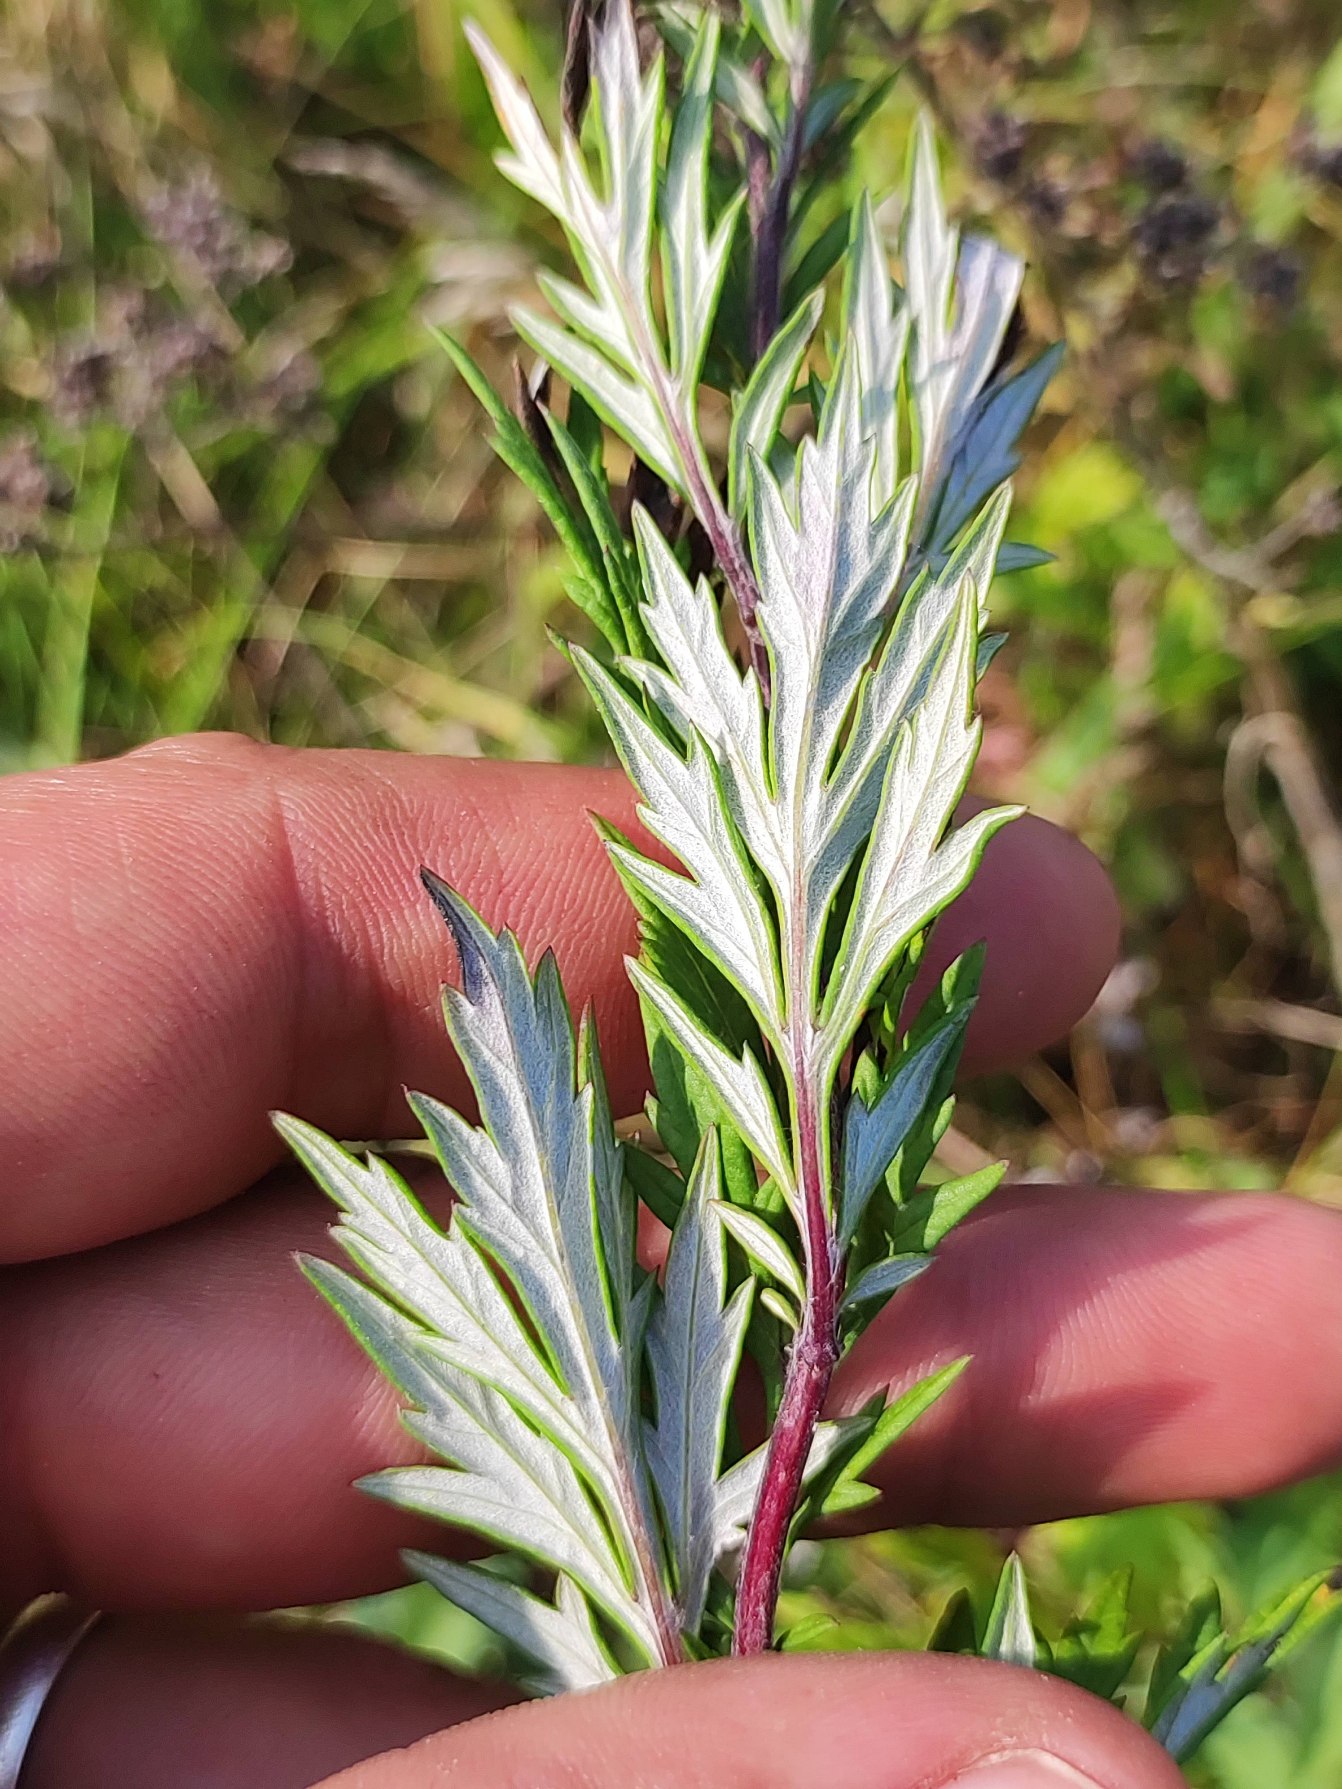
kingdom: Plantae
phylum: Tracheophyta
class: Magnoliopsida
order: Asterales
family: Asteraceae
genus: Artemisia
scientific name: Artemisia vulgaris
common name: Grå-bynke
